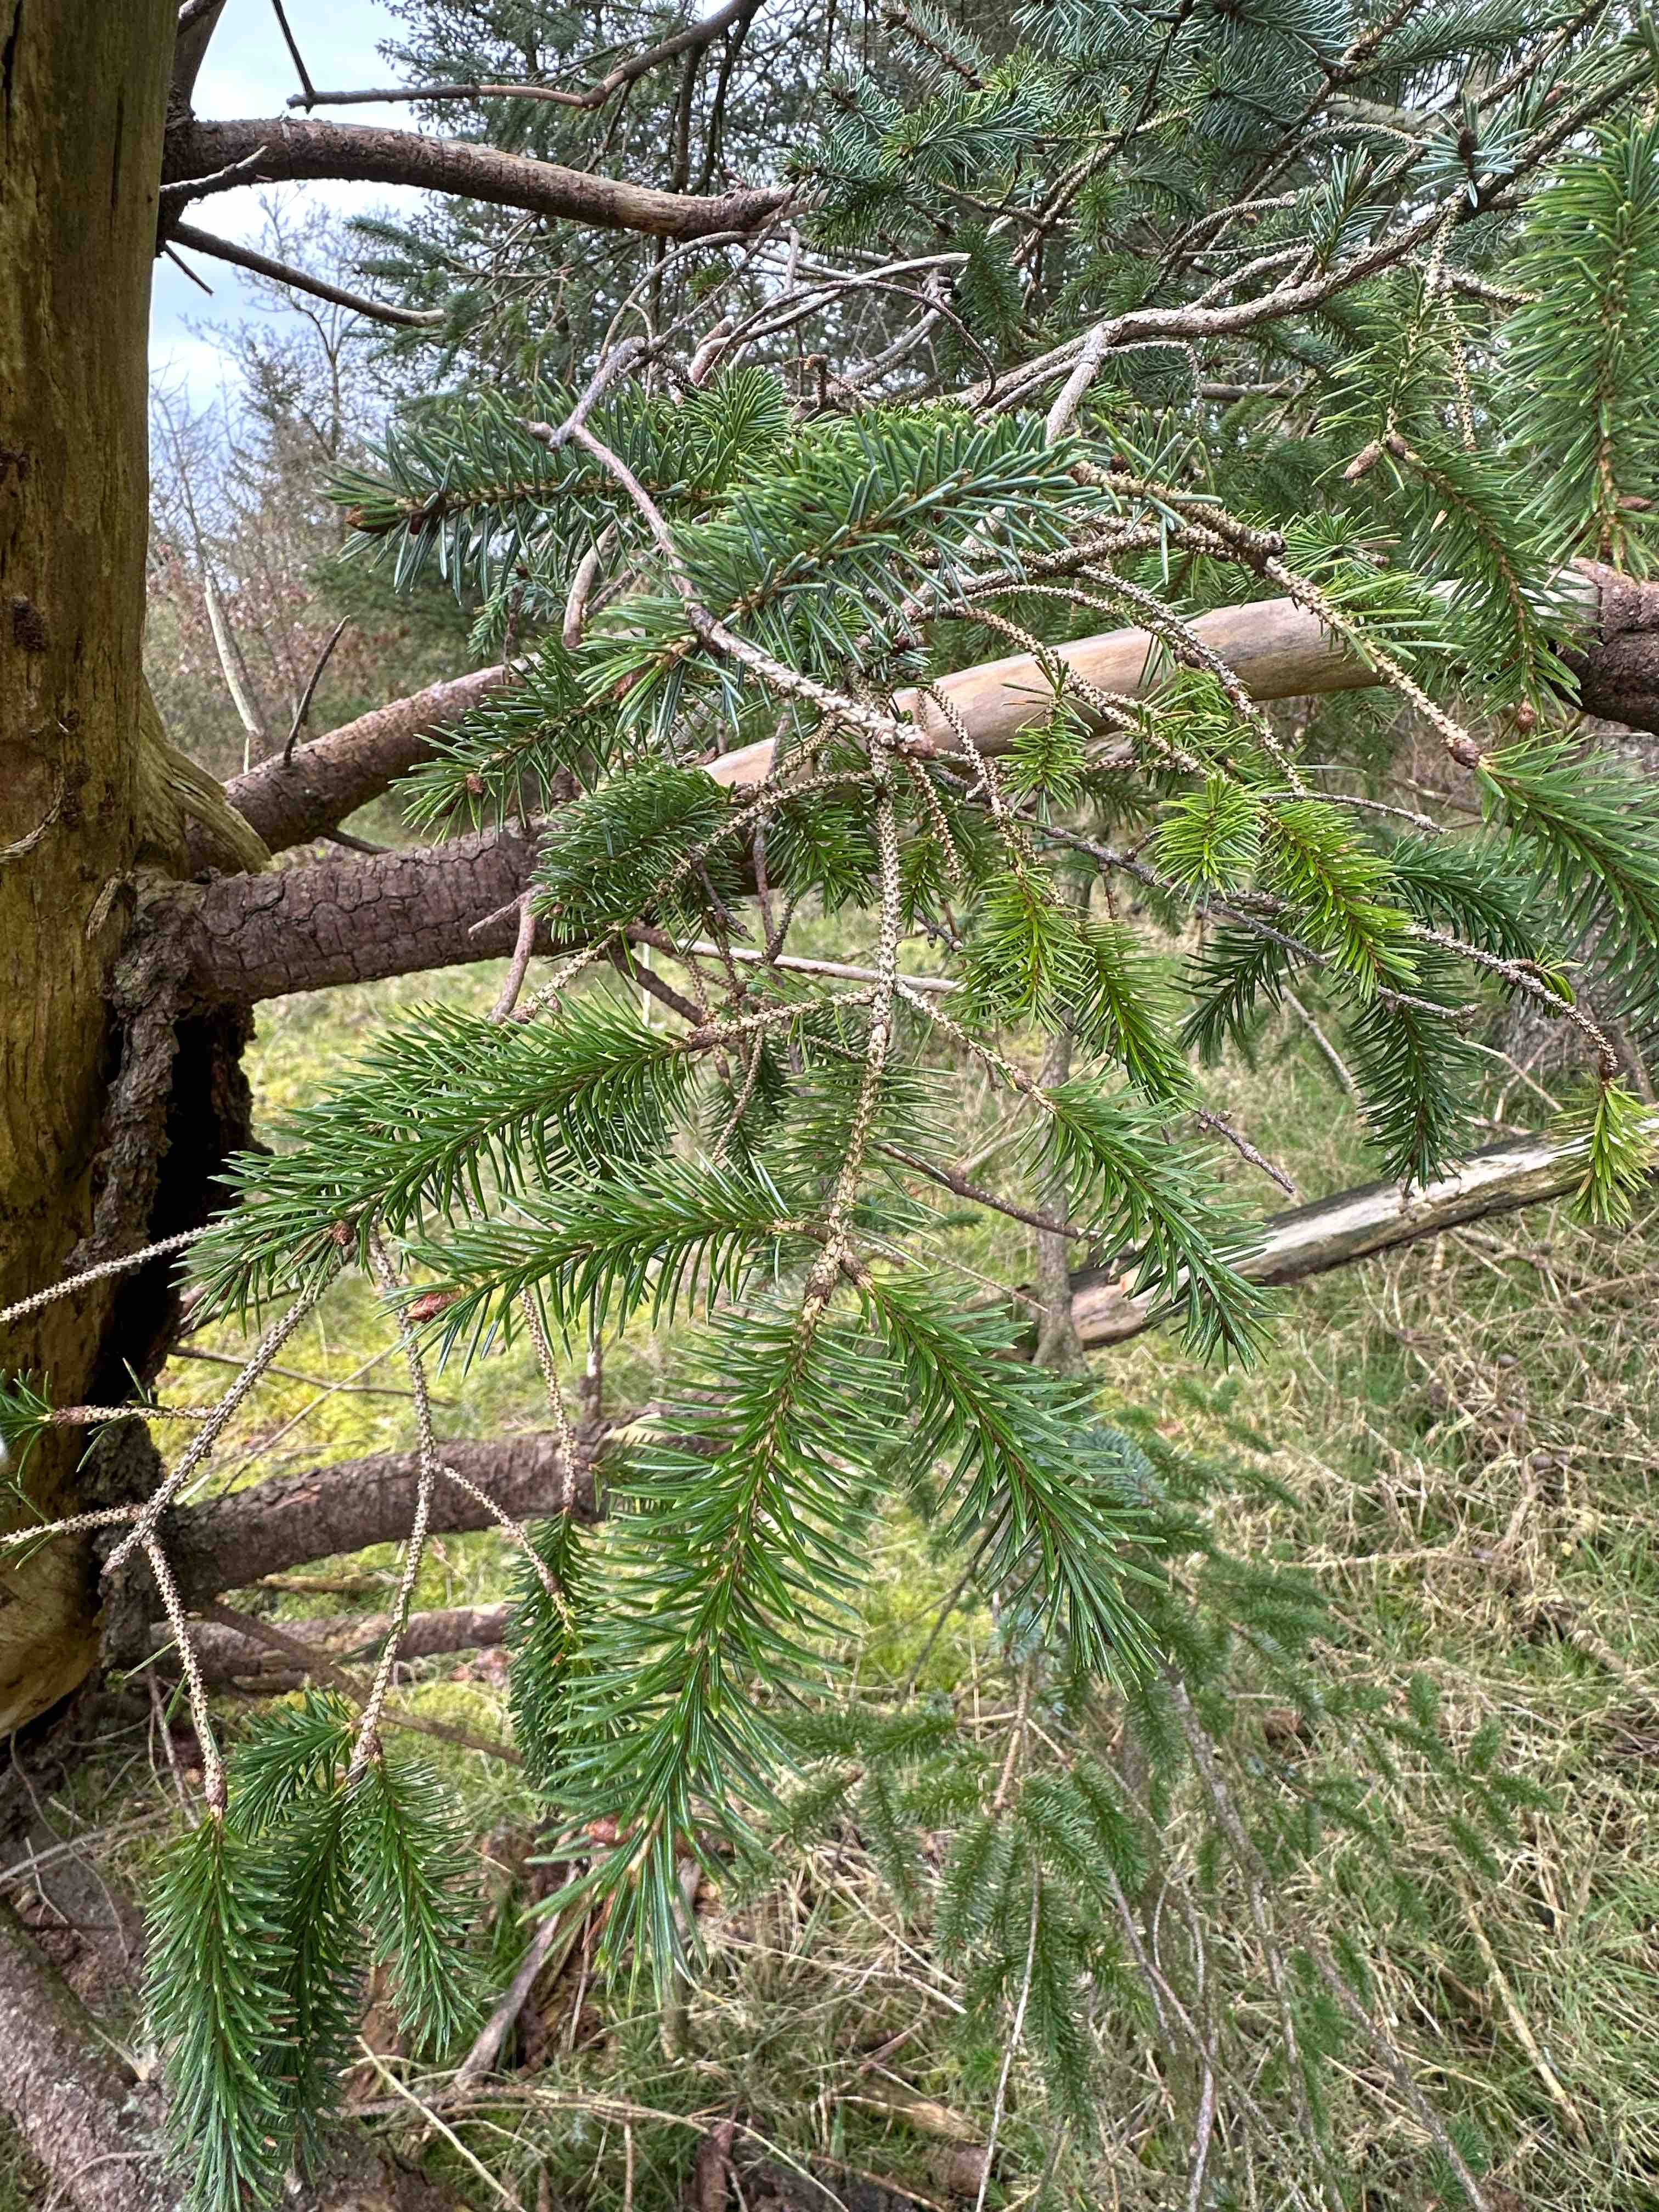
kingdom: Protozoa
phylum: Mycetozoa
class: Myxomycetes
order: Cribrariales
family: Tubiferaceae
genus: Reticularia
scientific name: Reticularia lycoperdon
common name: skinnende støvpude
